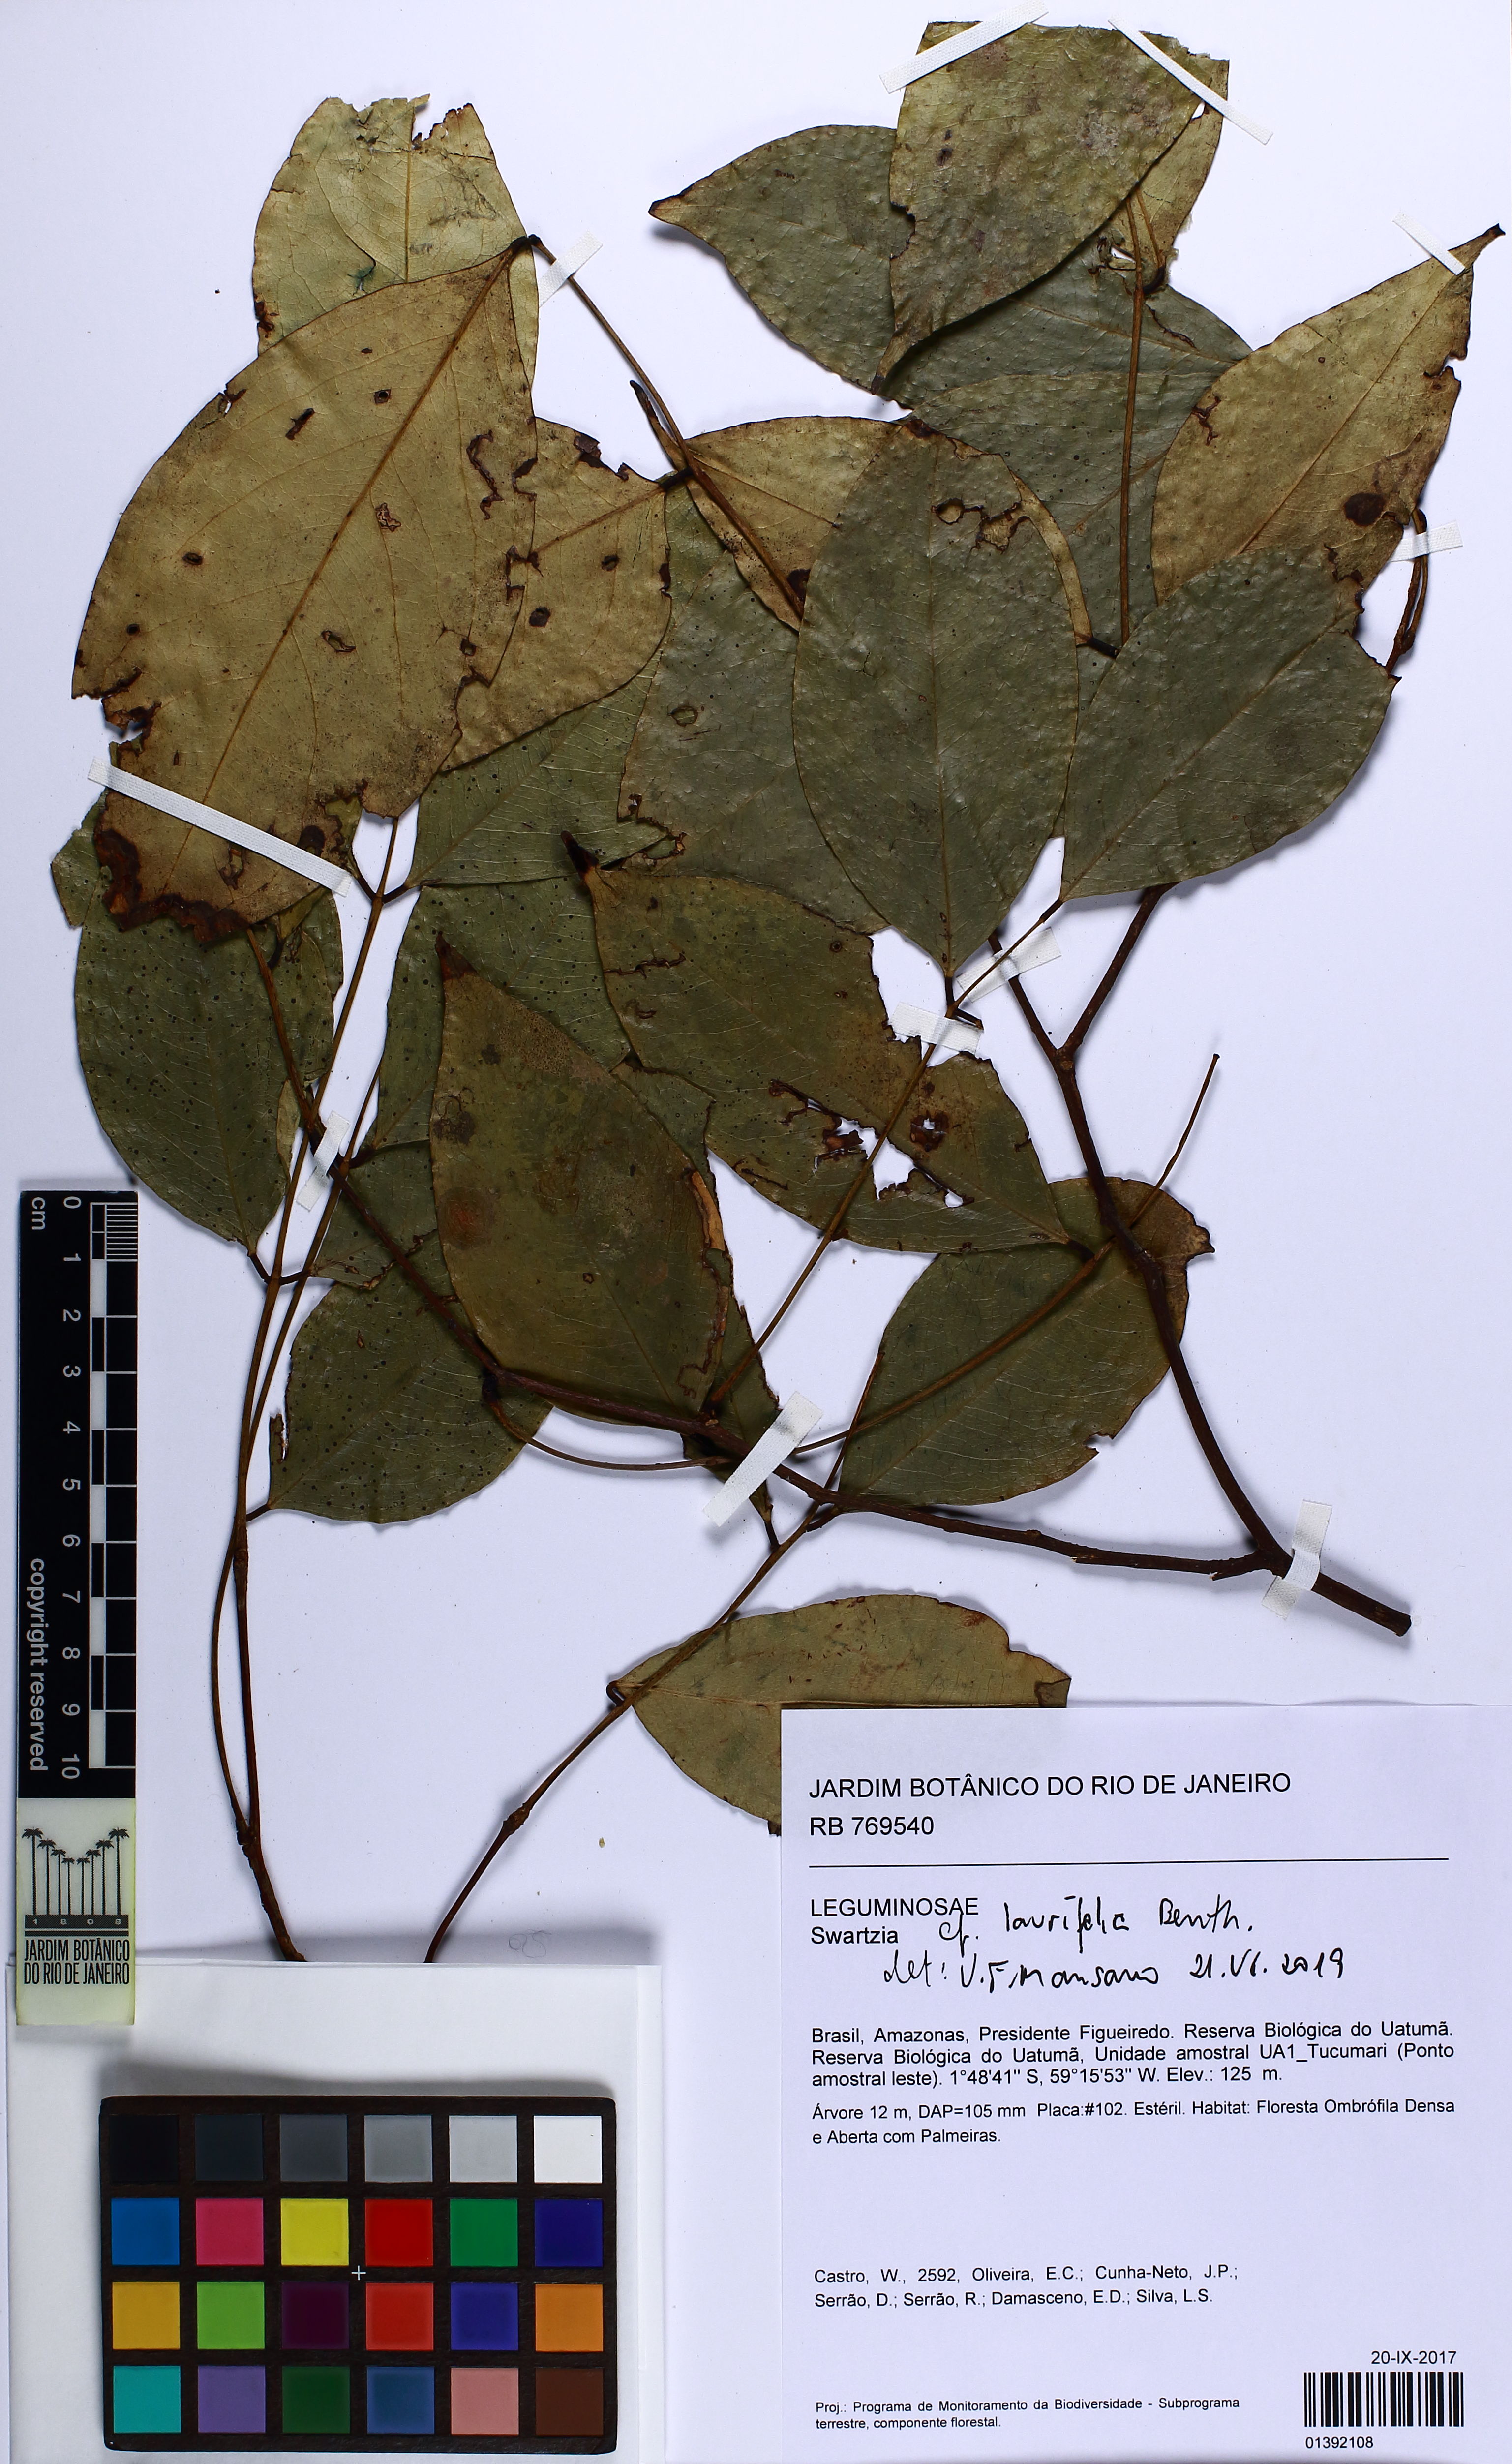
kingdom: Plantae
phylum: Tracheophyta
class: Magnoliopsida
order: Fabales
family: Fabaceae
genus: Swartzia
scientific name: Swartzia laurifolia
